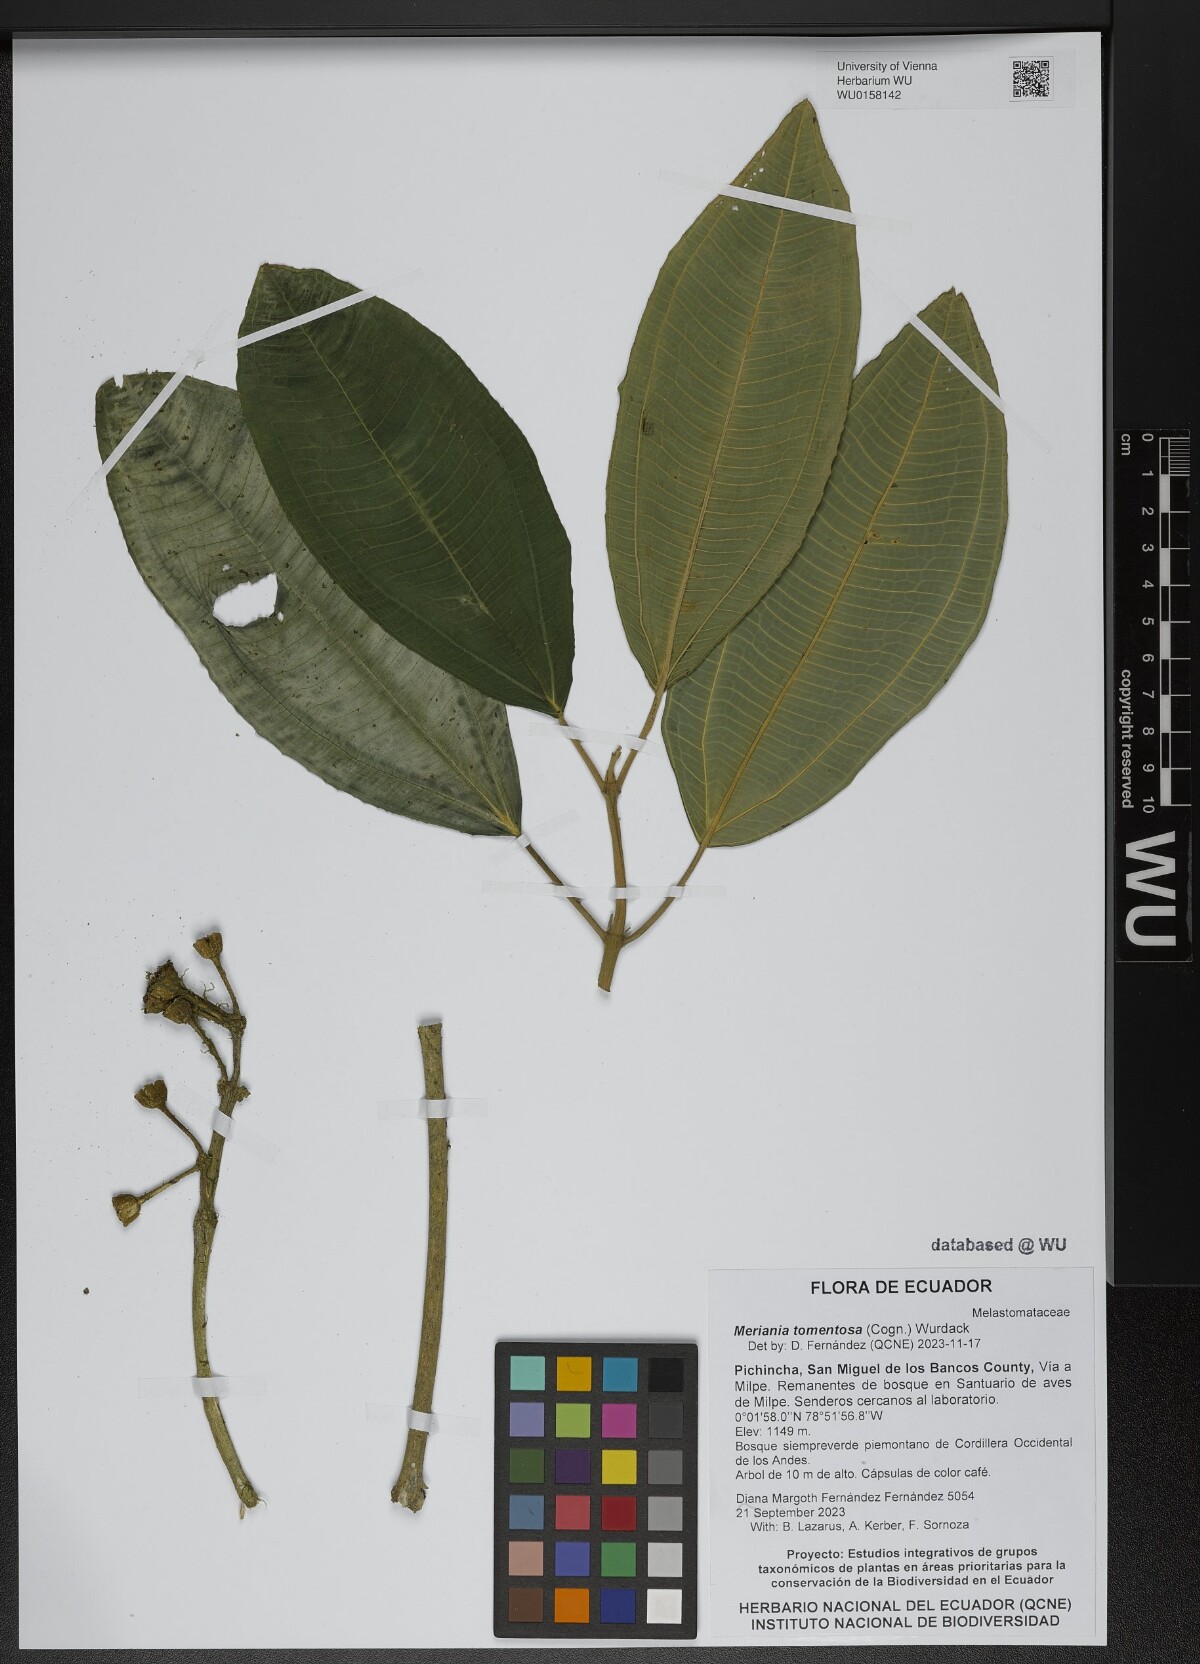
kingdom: Plantae
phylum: Tracheophyta
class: Magnoliopsida
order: Myrtales
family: Melastomataceae
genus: Meriania
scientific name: Meriania tomentosa
